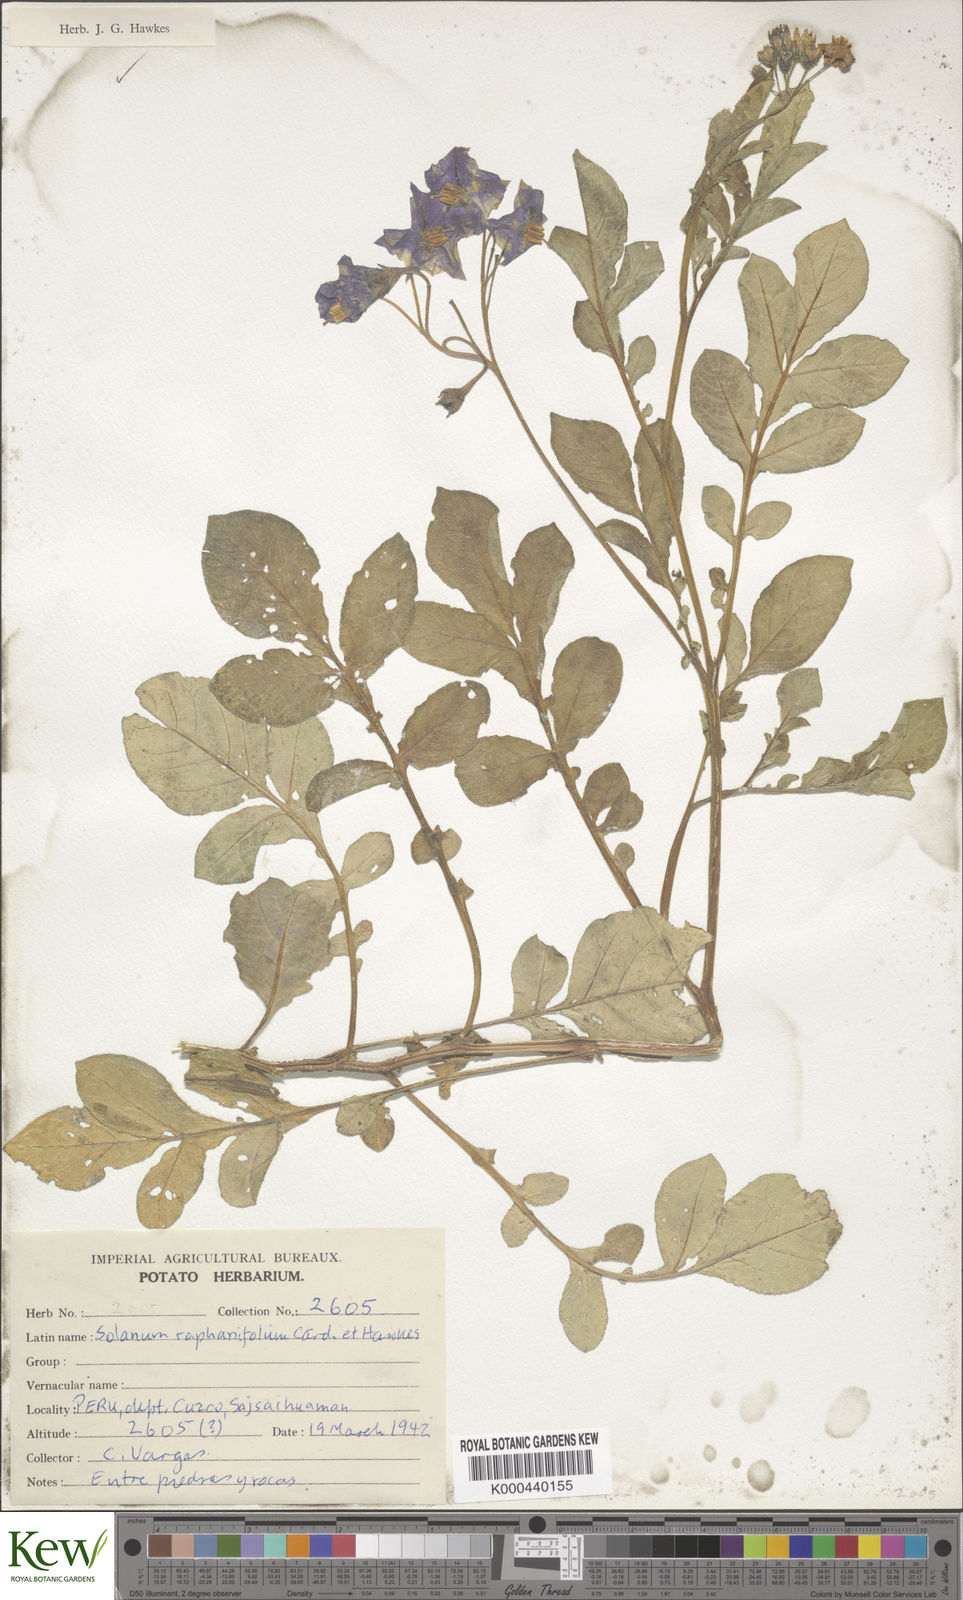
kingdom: Plantae
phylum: Tracheophyta
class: Magnoliopsida
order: Solanales
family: Solanaceae
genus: Solanum
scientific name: Solanum raphanifolium
